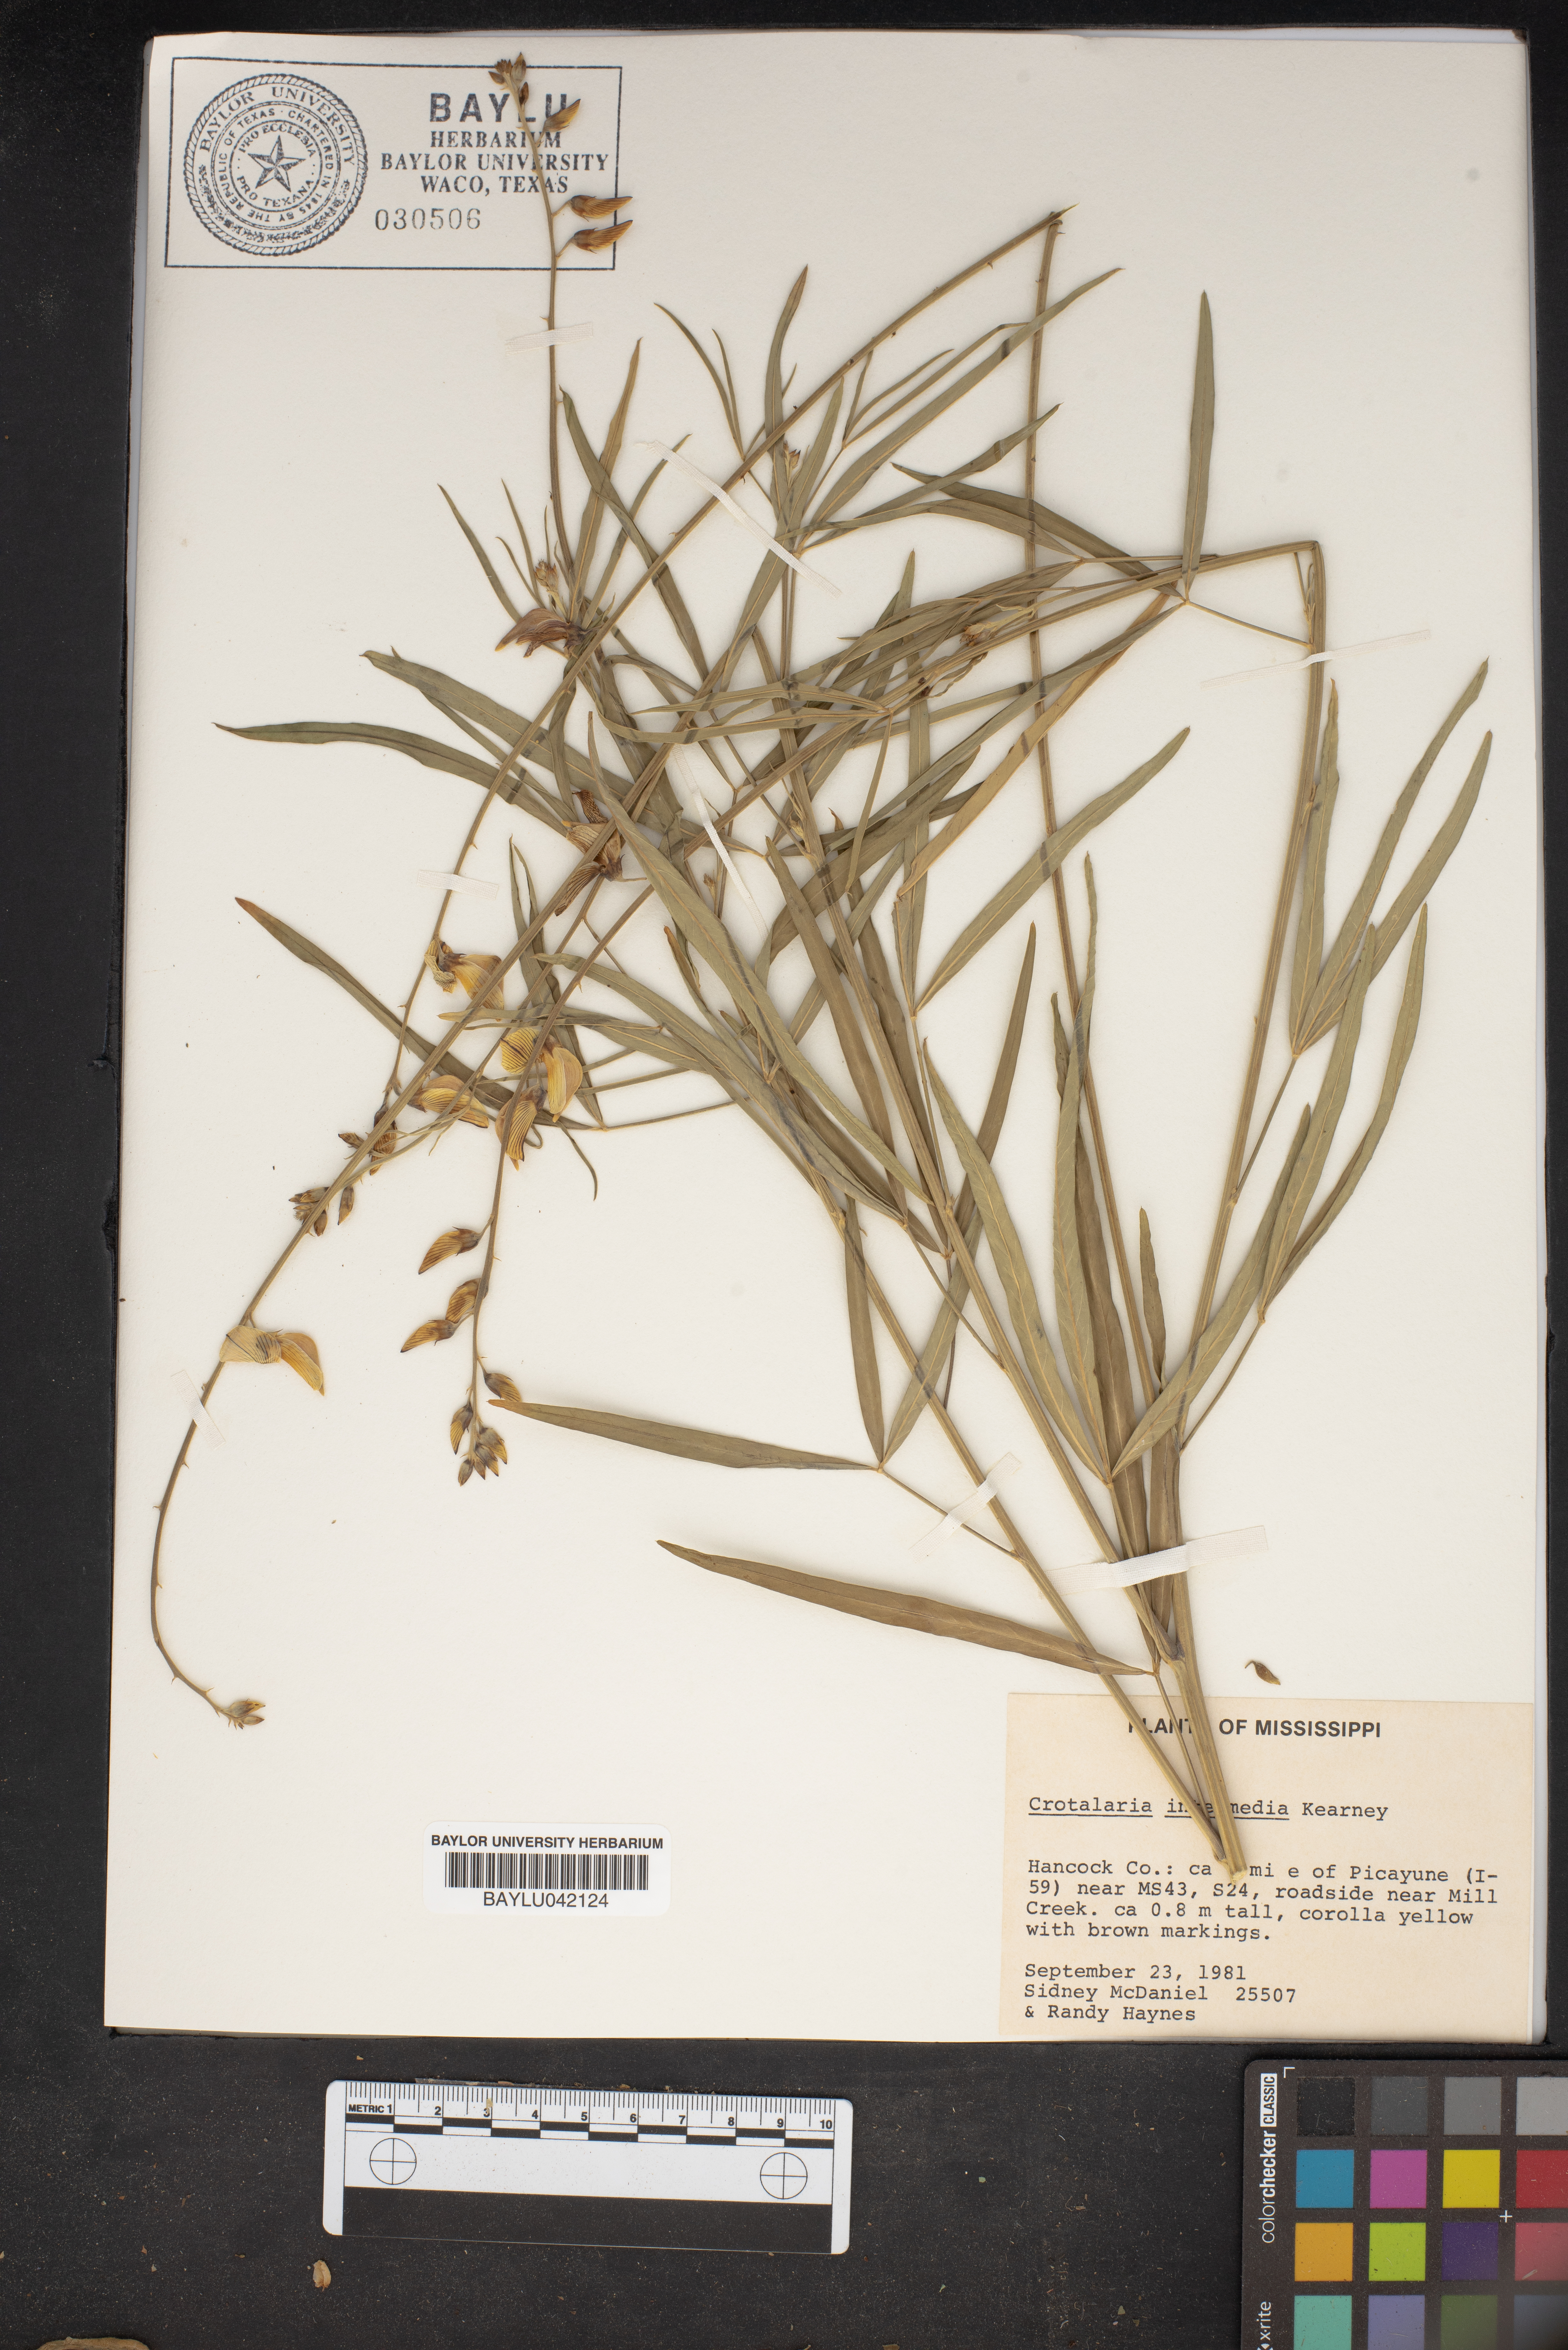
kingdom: Plantae
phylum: Tracheophyta
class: Magnoliopsida
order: Fabales
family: Fabaceae
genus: Crotalaria
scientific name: Crotalaria brevidens
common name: Ethiopian rattlebox
